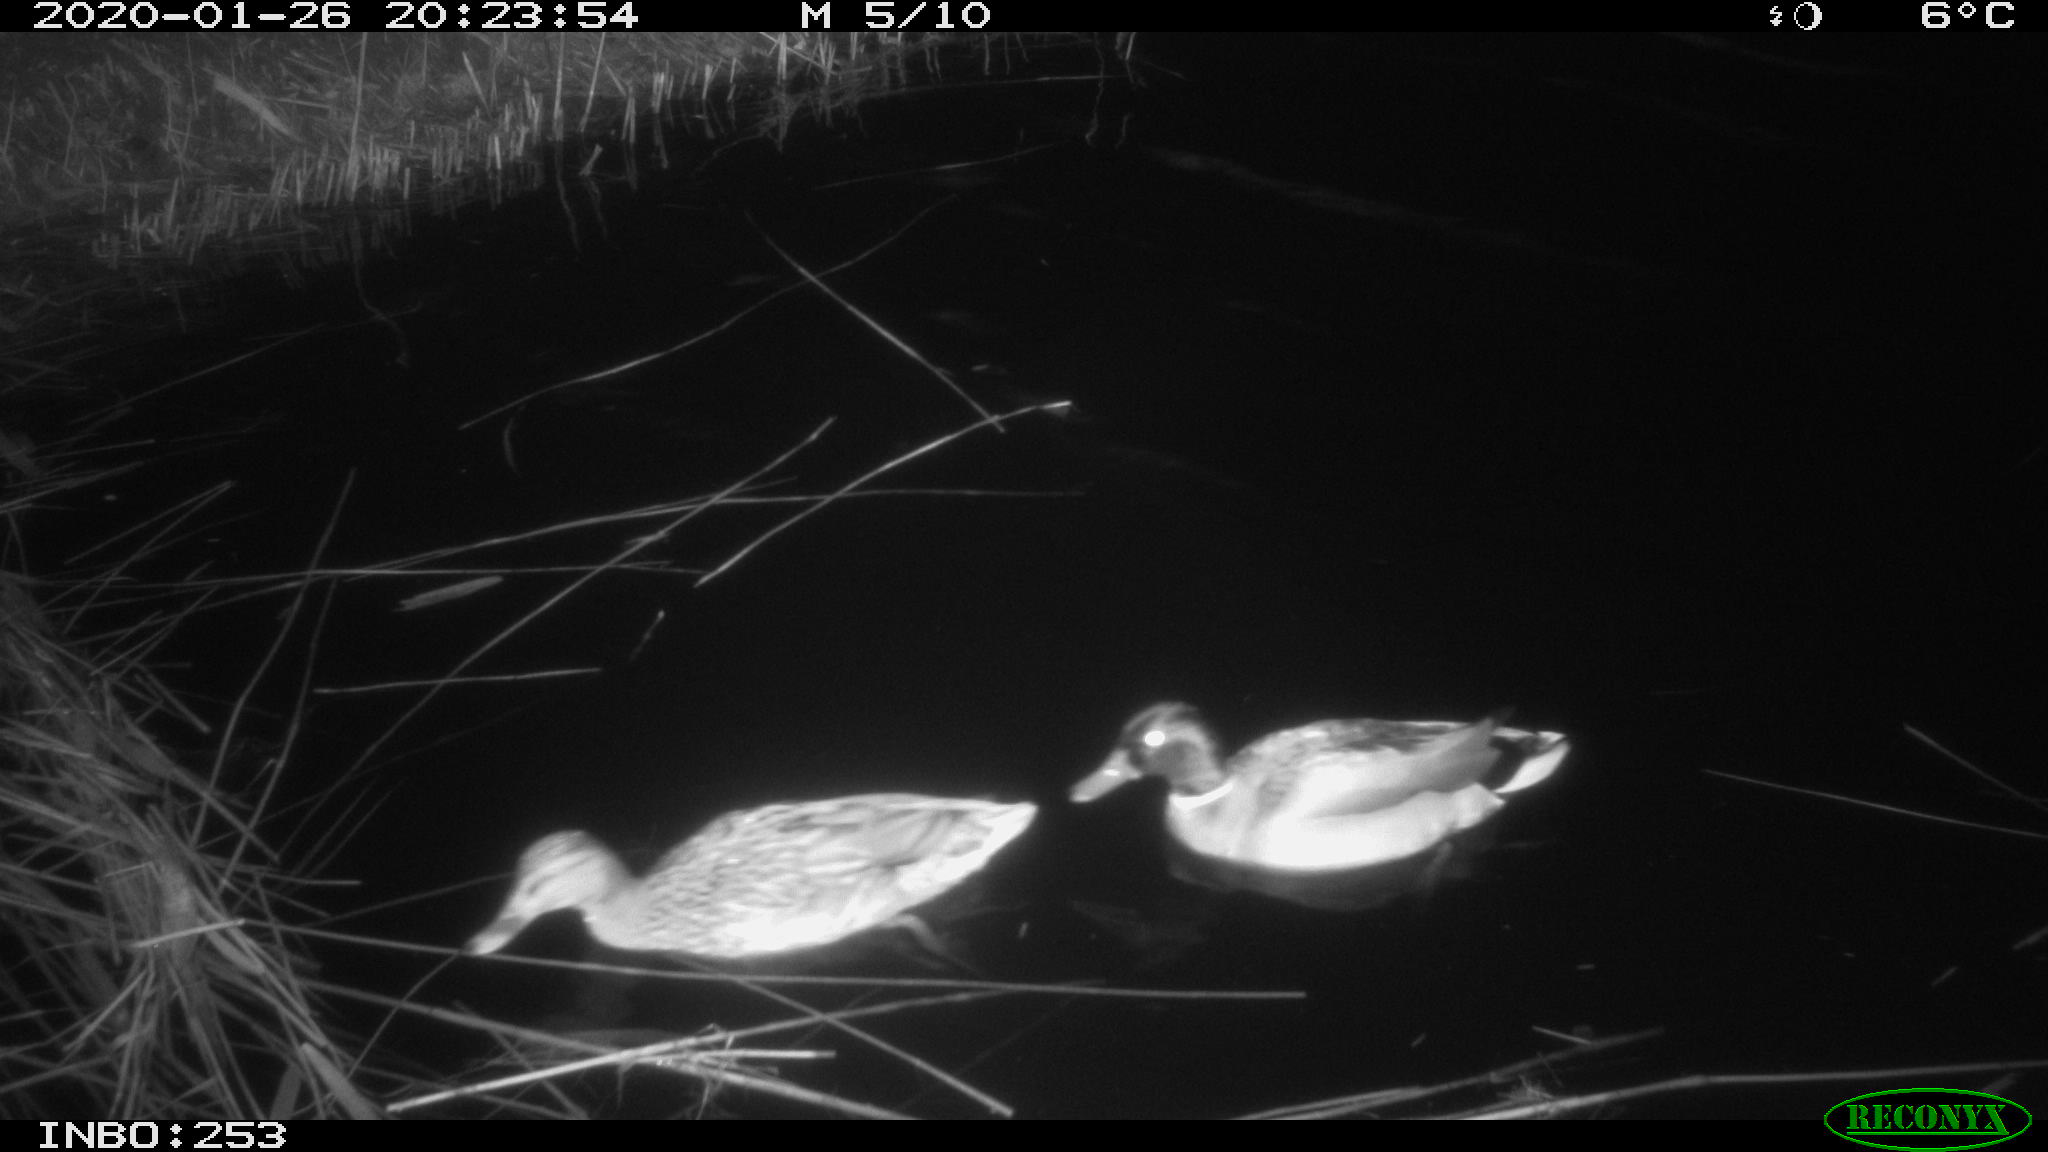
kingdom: Animalia
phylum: Chordata
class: Aves
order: Anseriformes
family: Anatidae
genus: Anas
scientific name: Anas platyrhynchos
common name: Mallard
